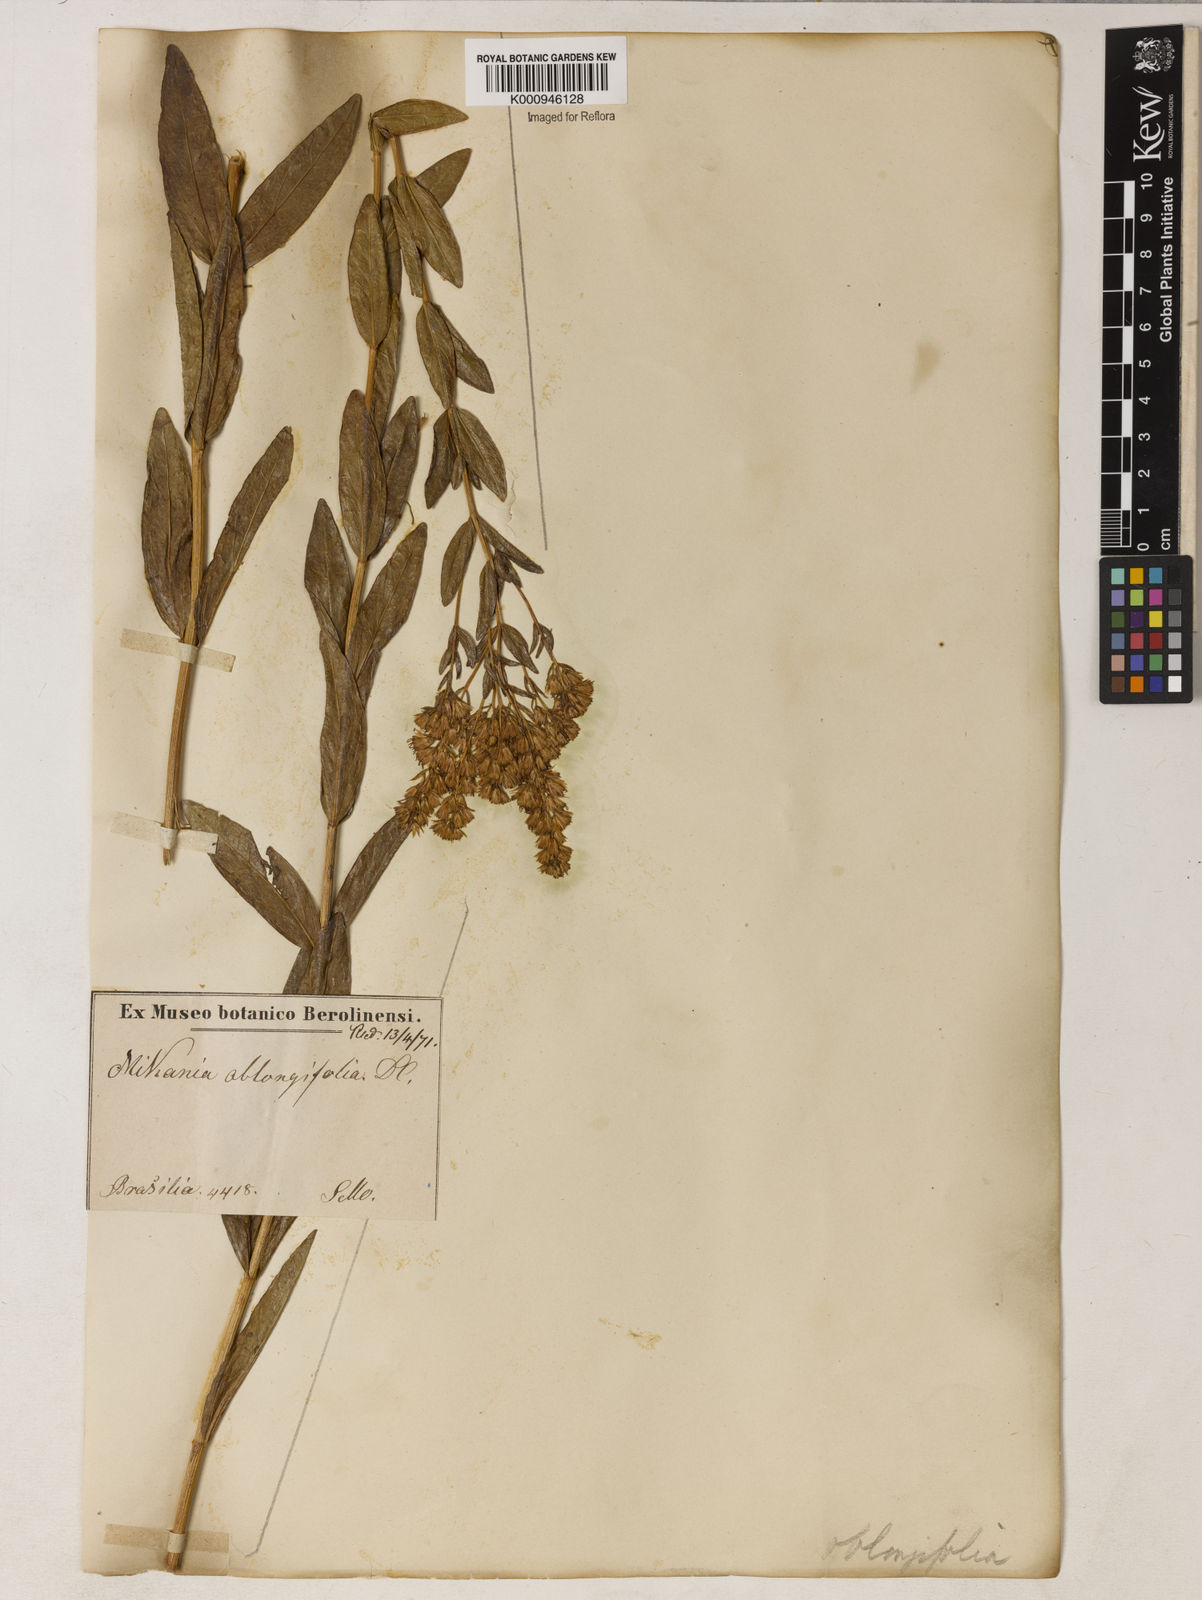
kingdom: Plantae
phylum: Tracheophyta
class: Magnoliopsida
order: Asterales
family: Asteraceae
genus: Mikania
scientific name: Mikania oblongifolia
